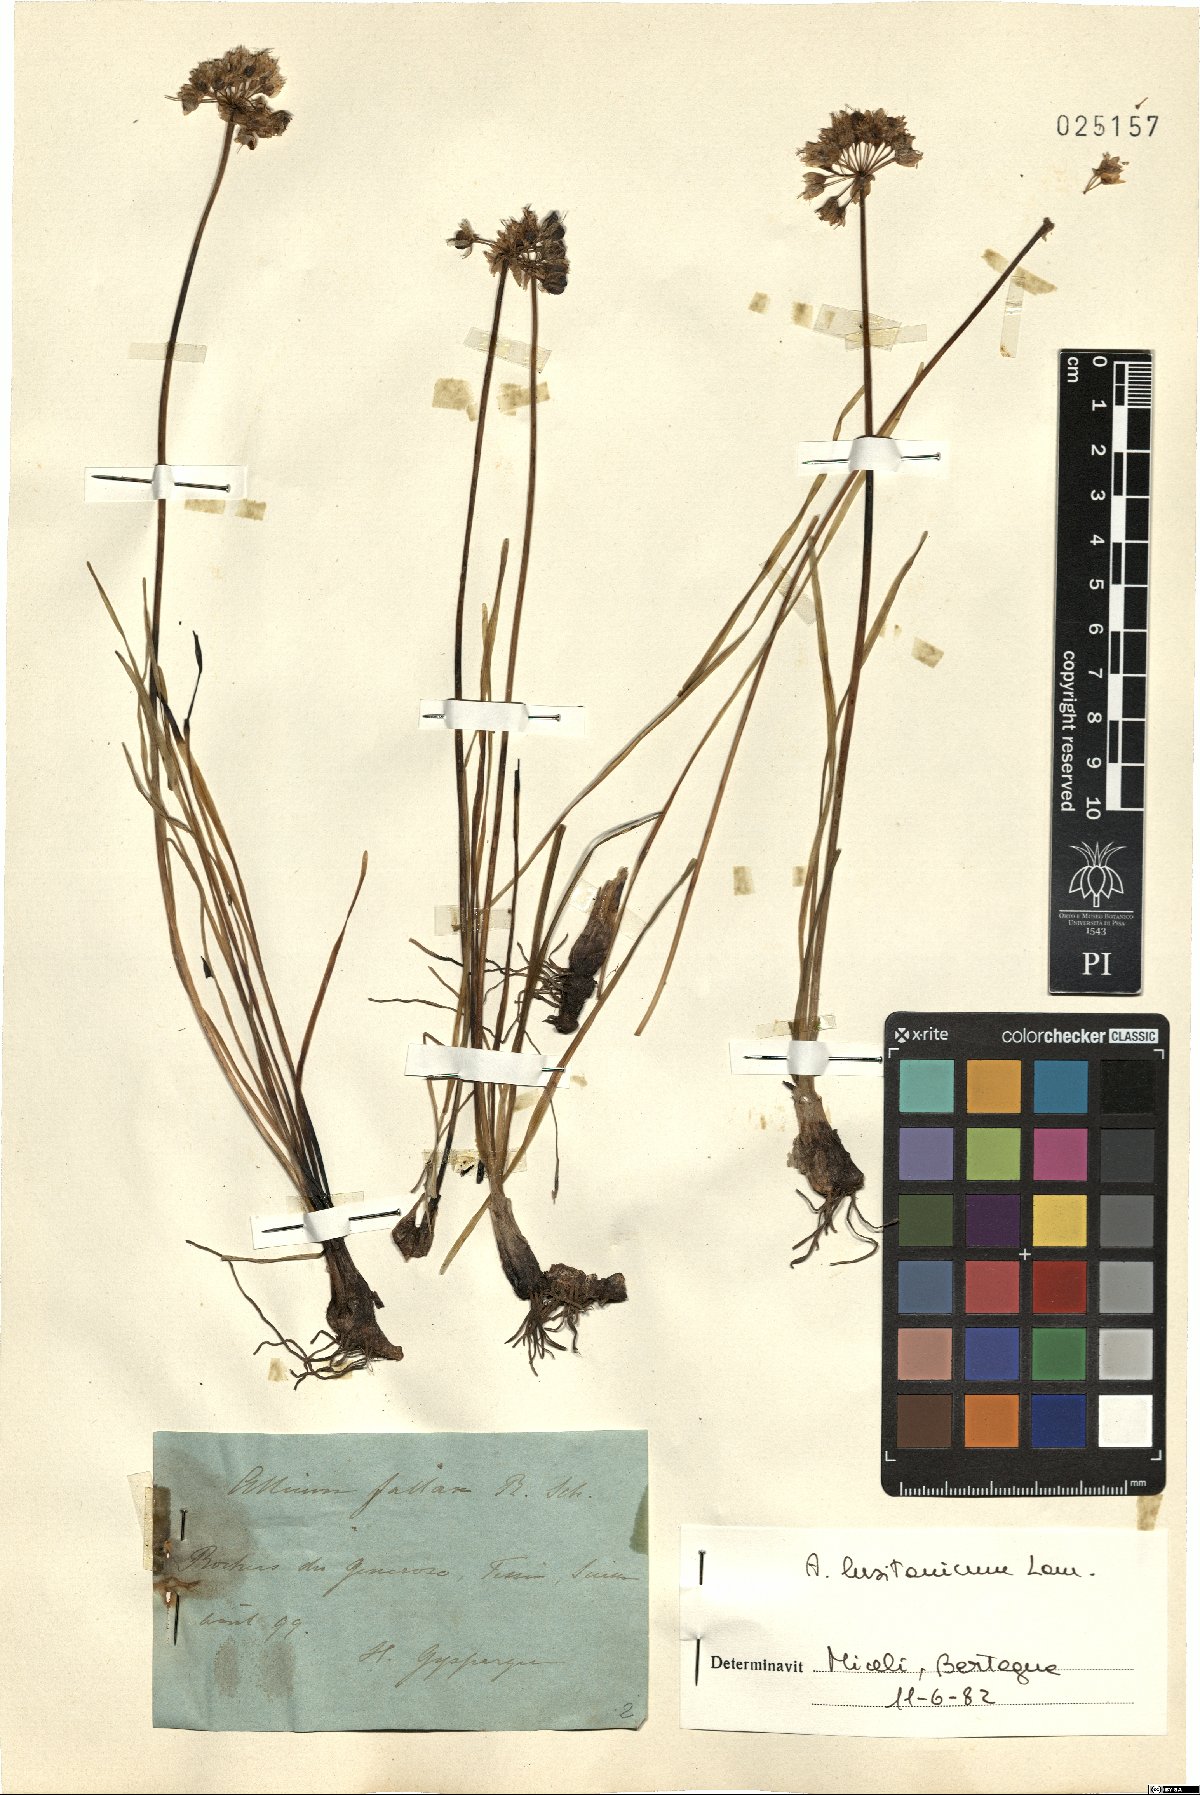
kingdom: Plantae
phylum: Tracheophyta
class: Liliopsida
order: Asparagales
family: Amaryllidaceae
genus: Allium
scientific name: Allium lusitanicum
